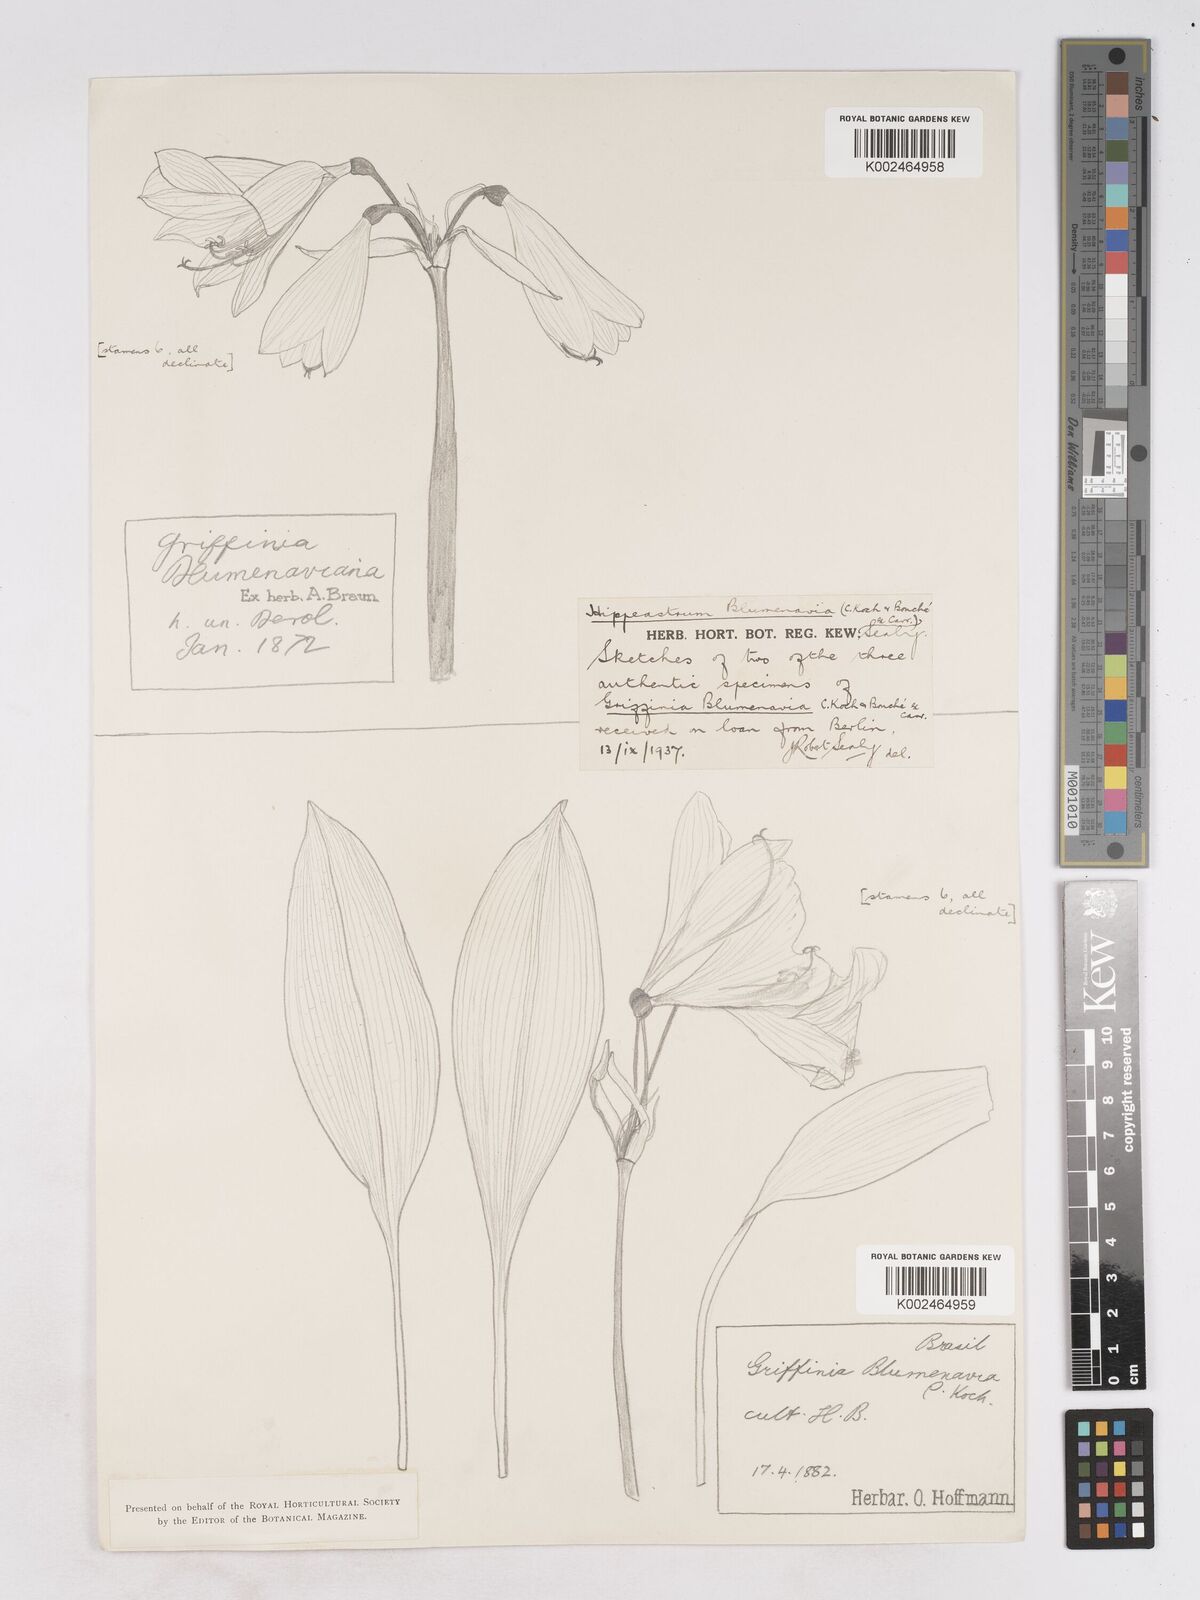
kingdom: Plantae
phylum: Tracheophyta
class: Liliopsida
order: Asparagales
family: Amaryllidaceae
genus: Zephyranthes
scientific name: Zephyranthes blumenavia
